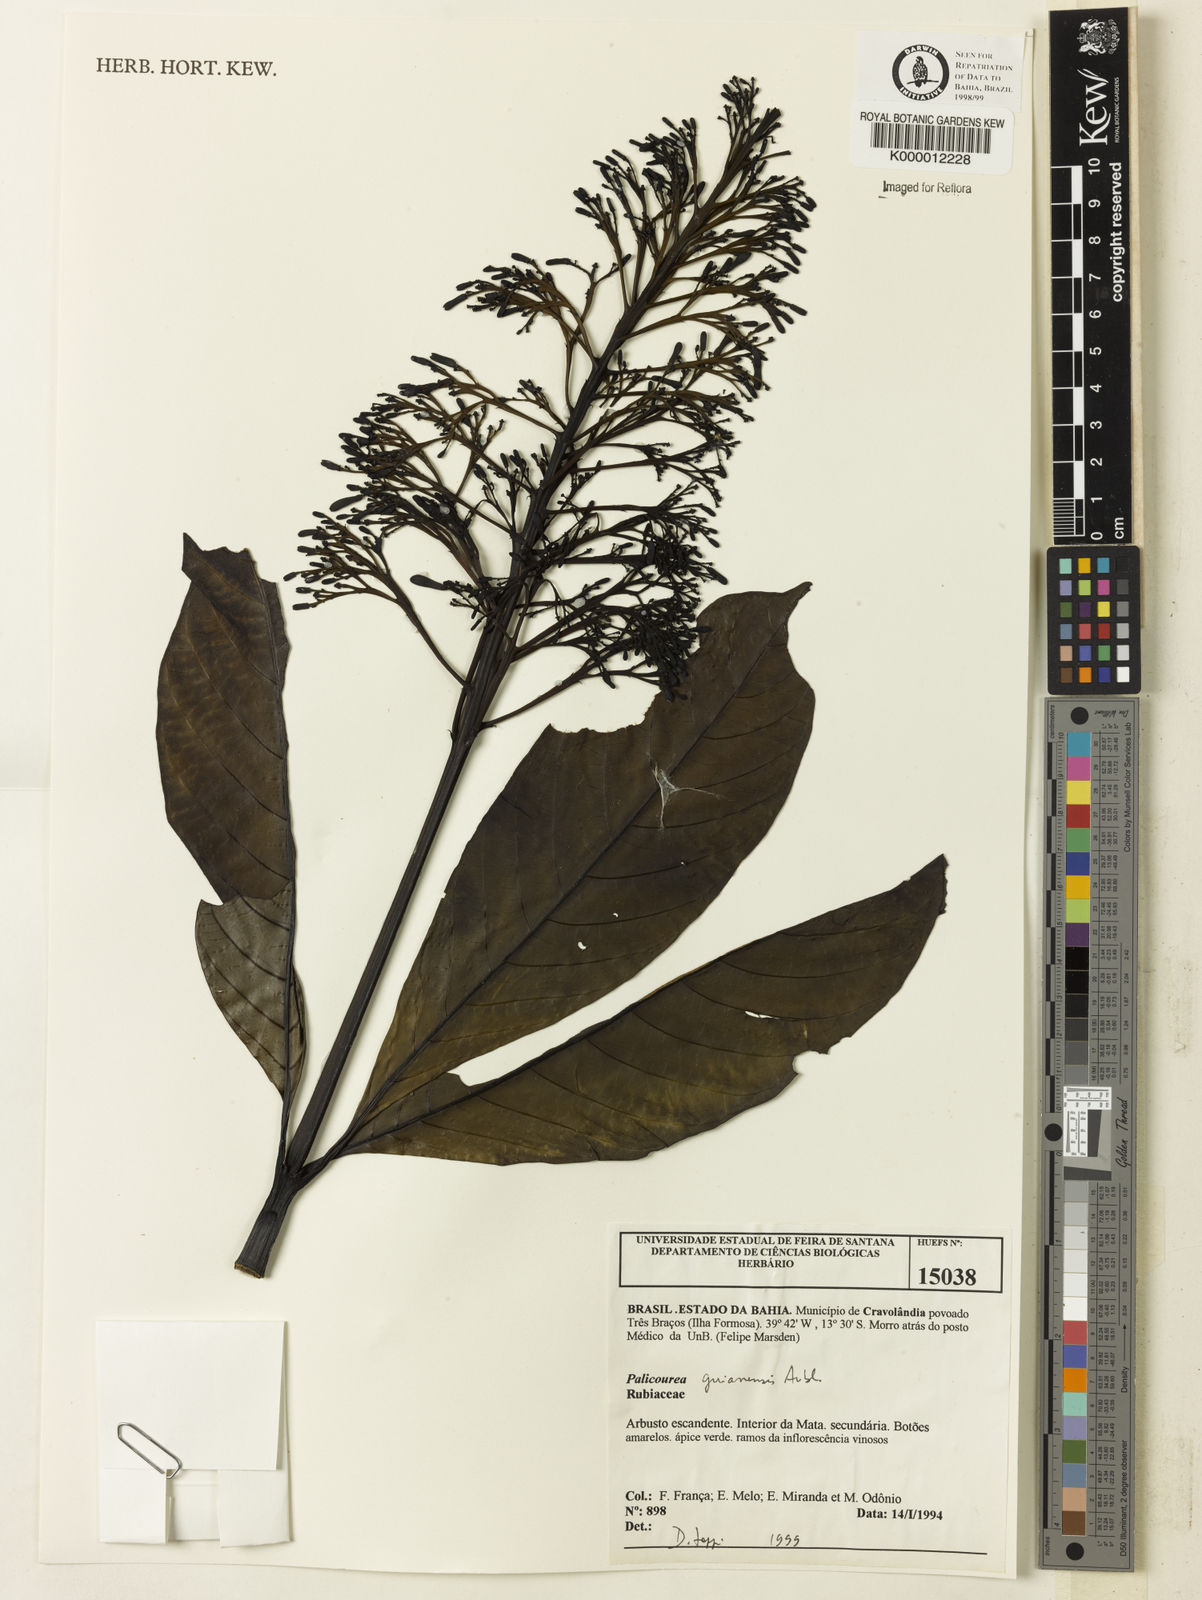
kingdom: Plantae
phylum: Tracheophyta
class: Magnoliopsida
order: Gentianales
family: Rubiaceae
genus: Palicourea
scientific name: Palicourea guianensis
